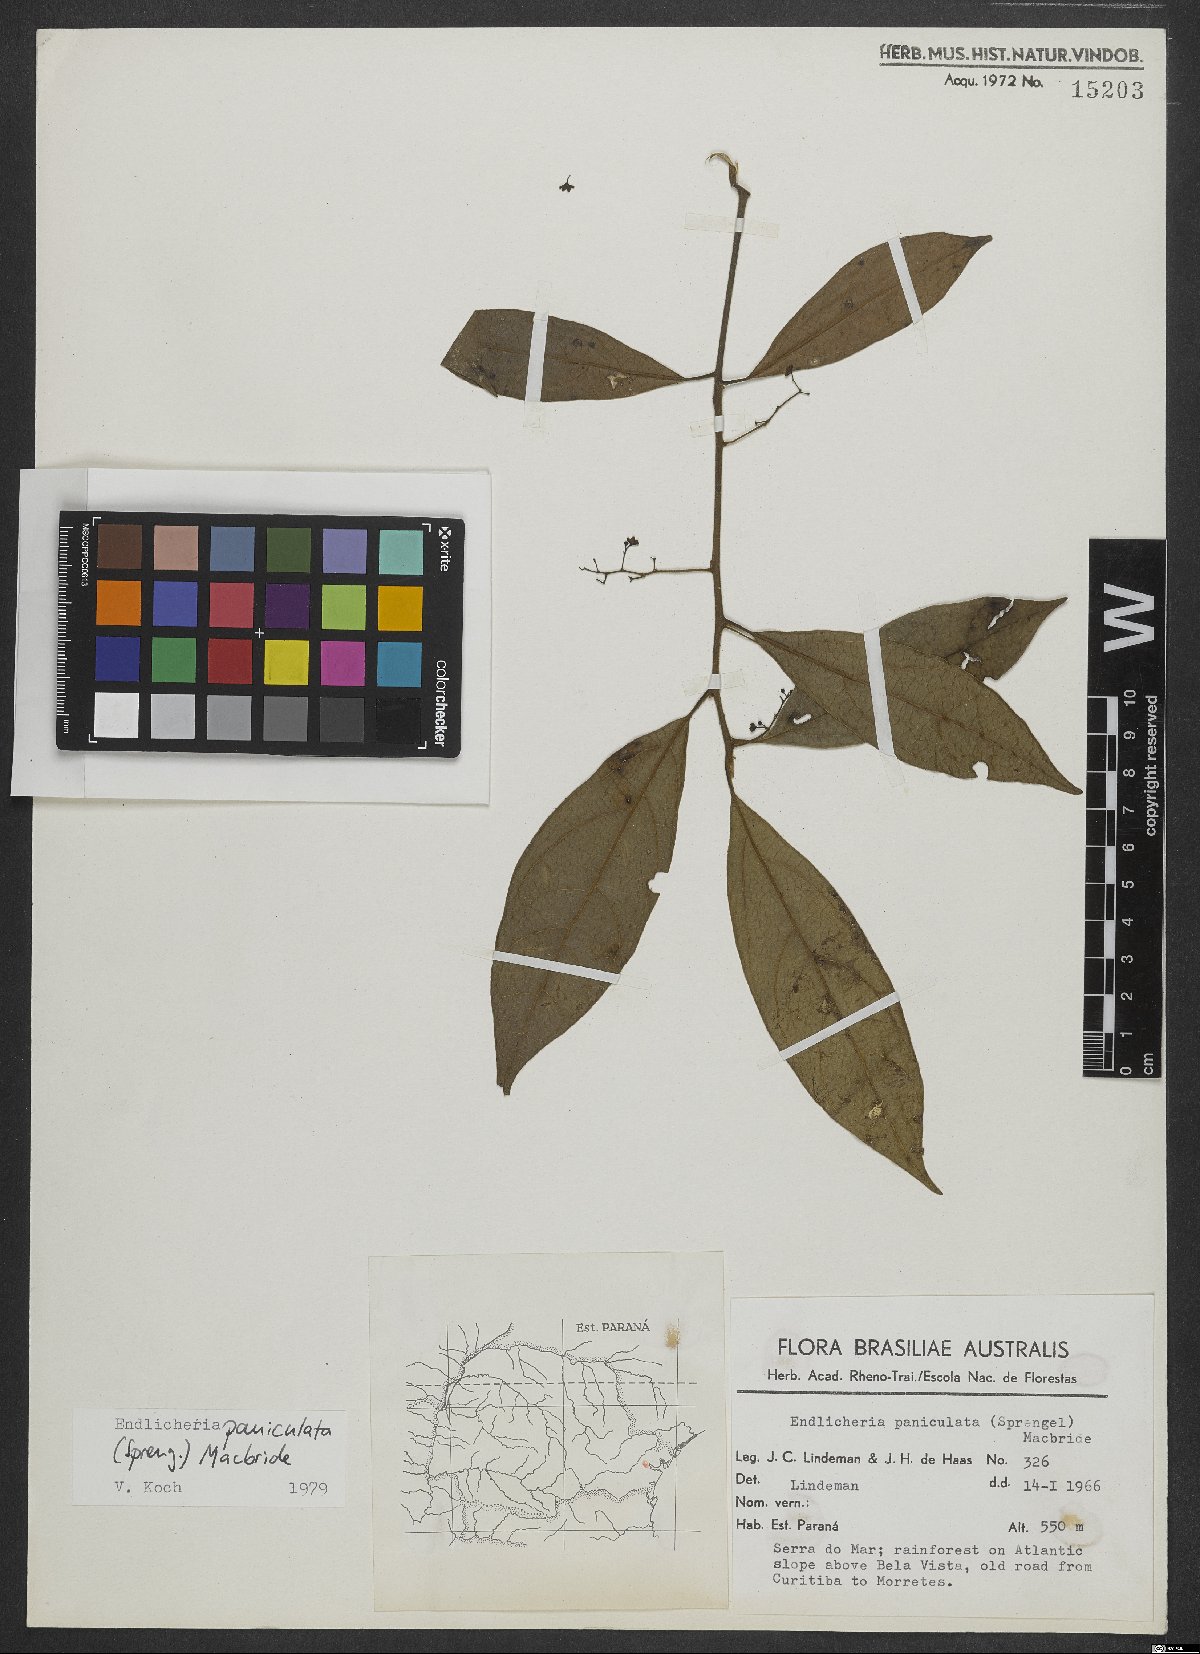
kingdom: Plantae
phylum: Tracheophyta
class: Magnoliopsida
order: Laurales
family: Lauraceae
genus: Endlicheria
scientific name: Endlicheria paniculata
